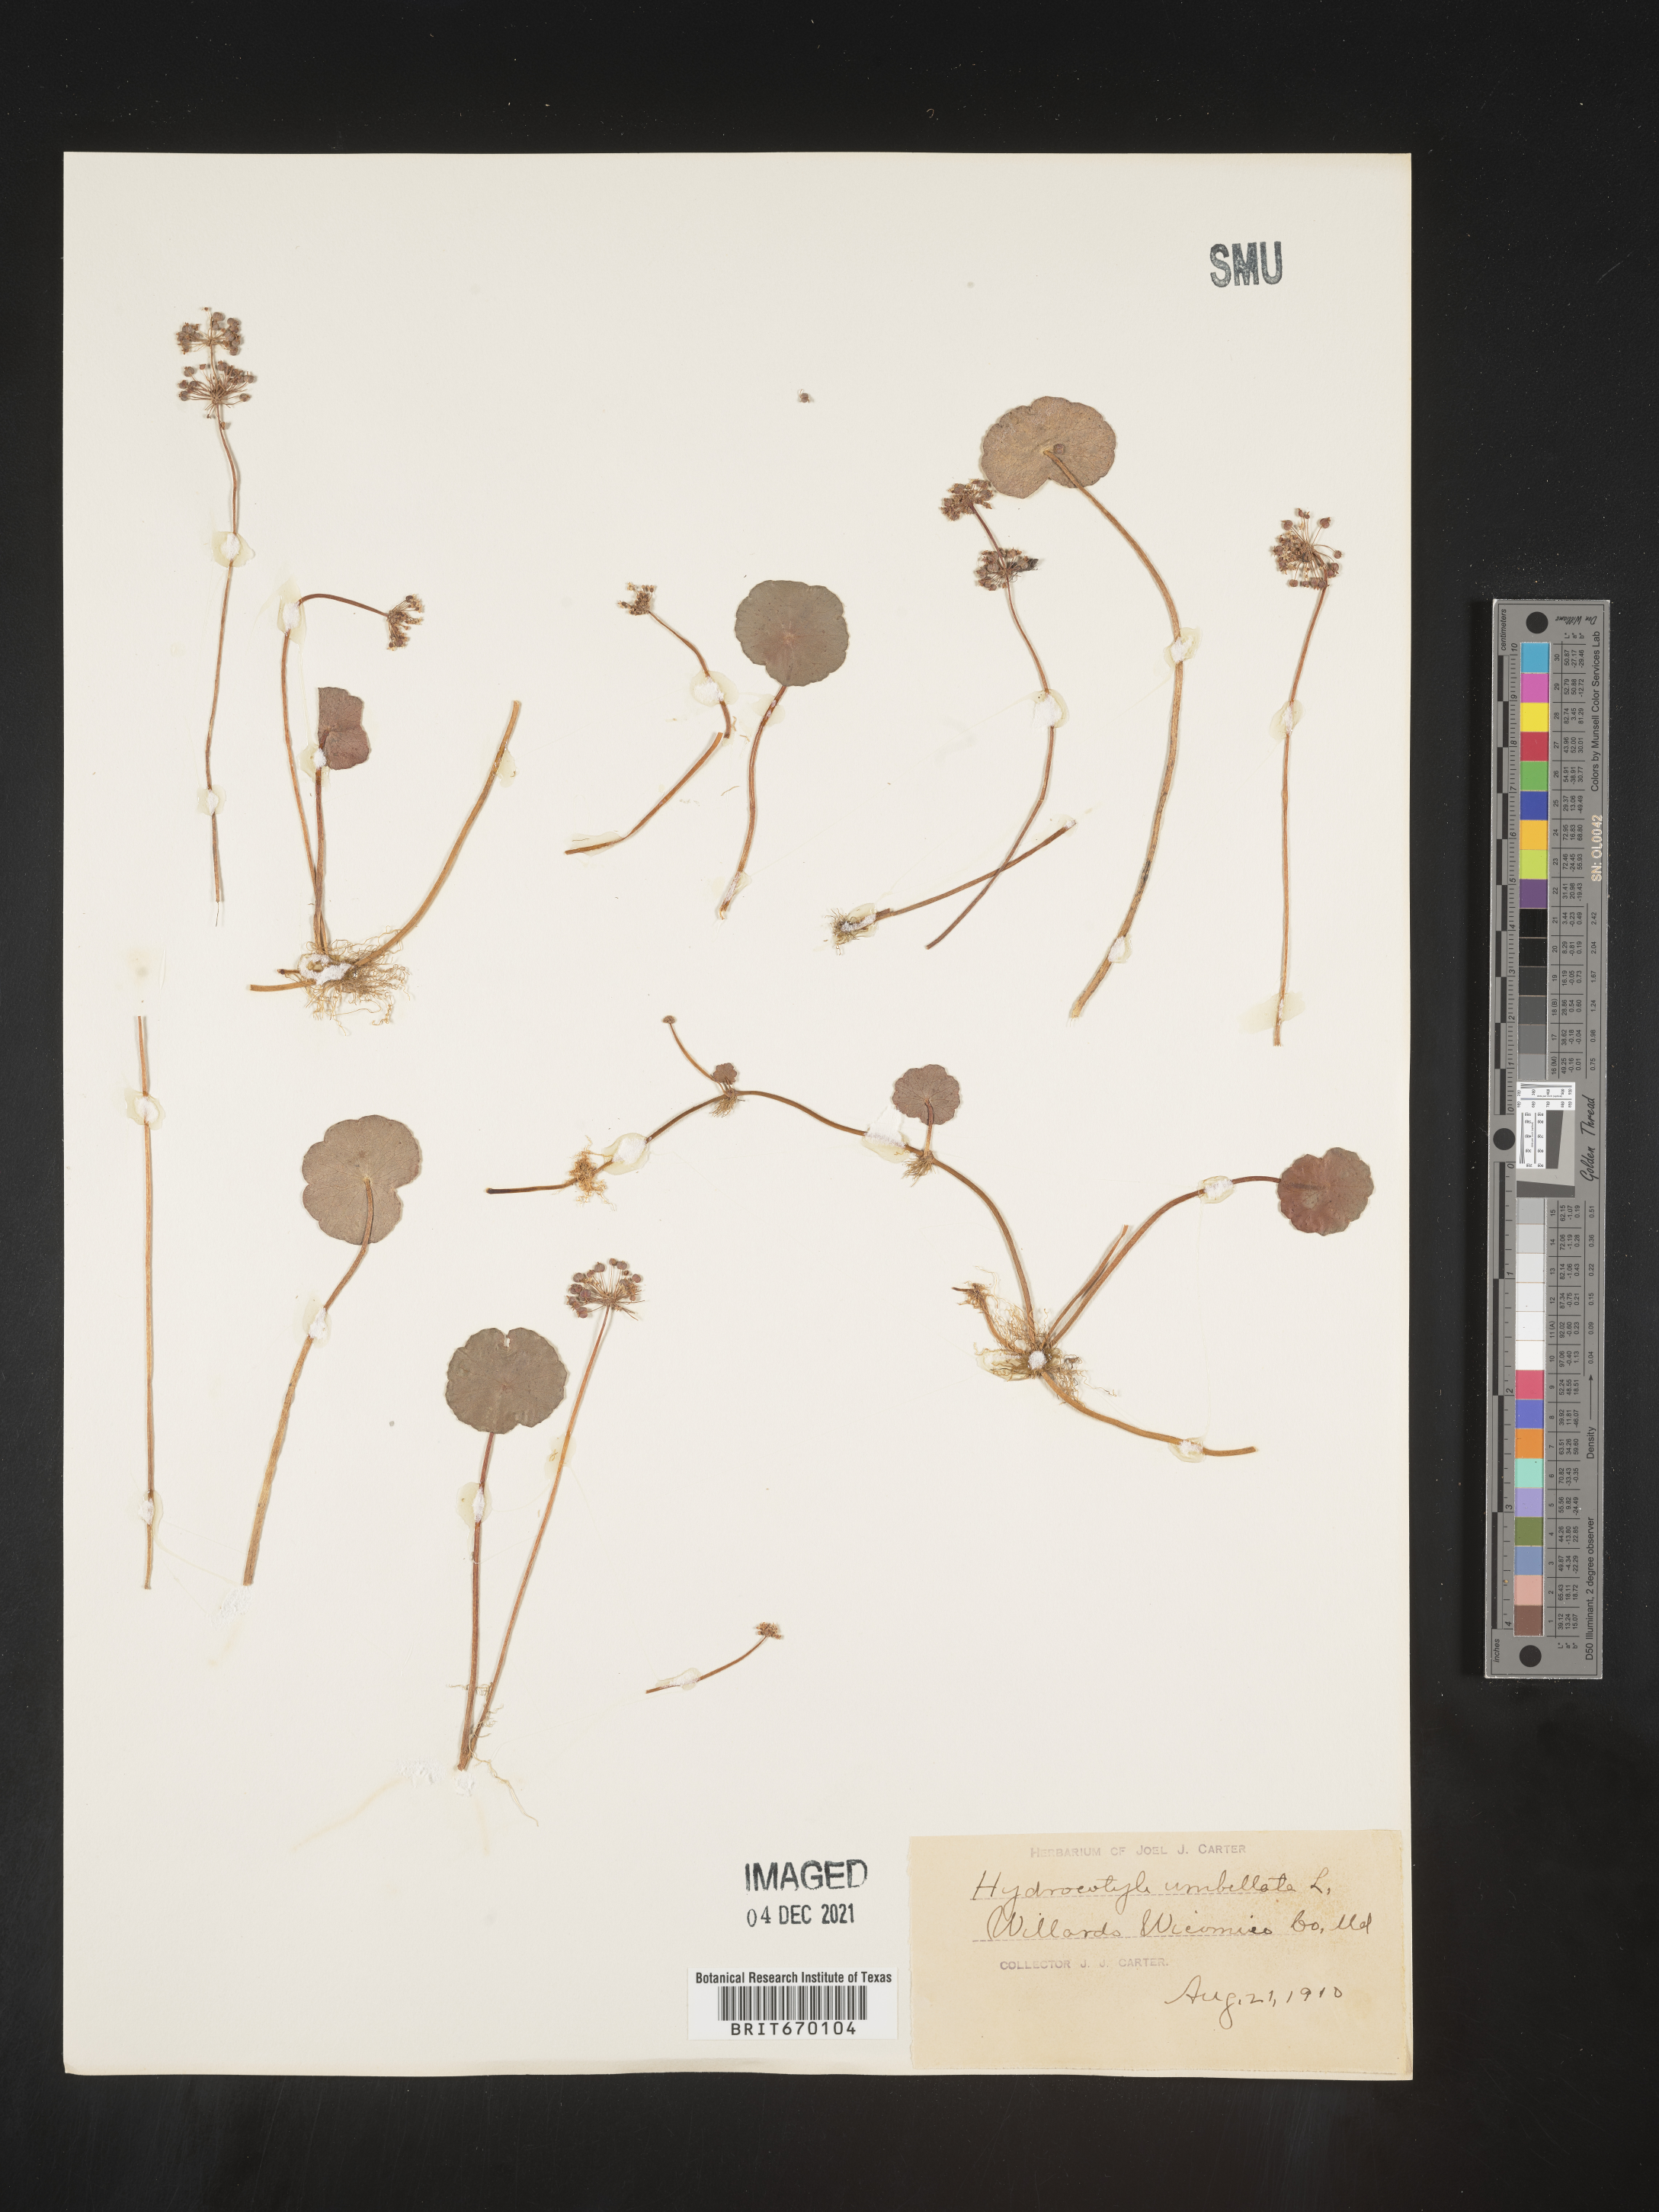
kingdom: Plantae
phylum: Tracheophyta
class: Magnoliopsida
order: Apiales
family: Araliaceae
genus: Hydrocotyle
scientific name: Hydrocotyle umbellata
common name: Water pennywort
